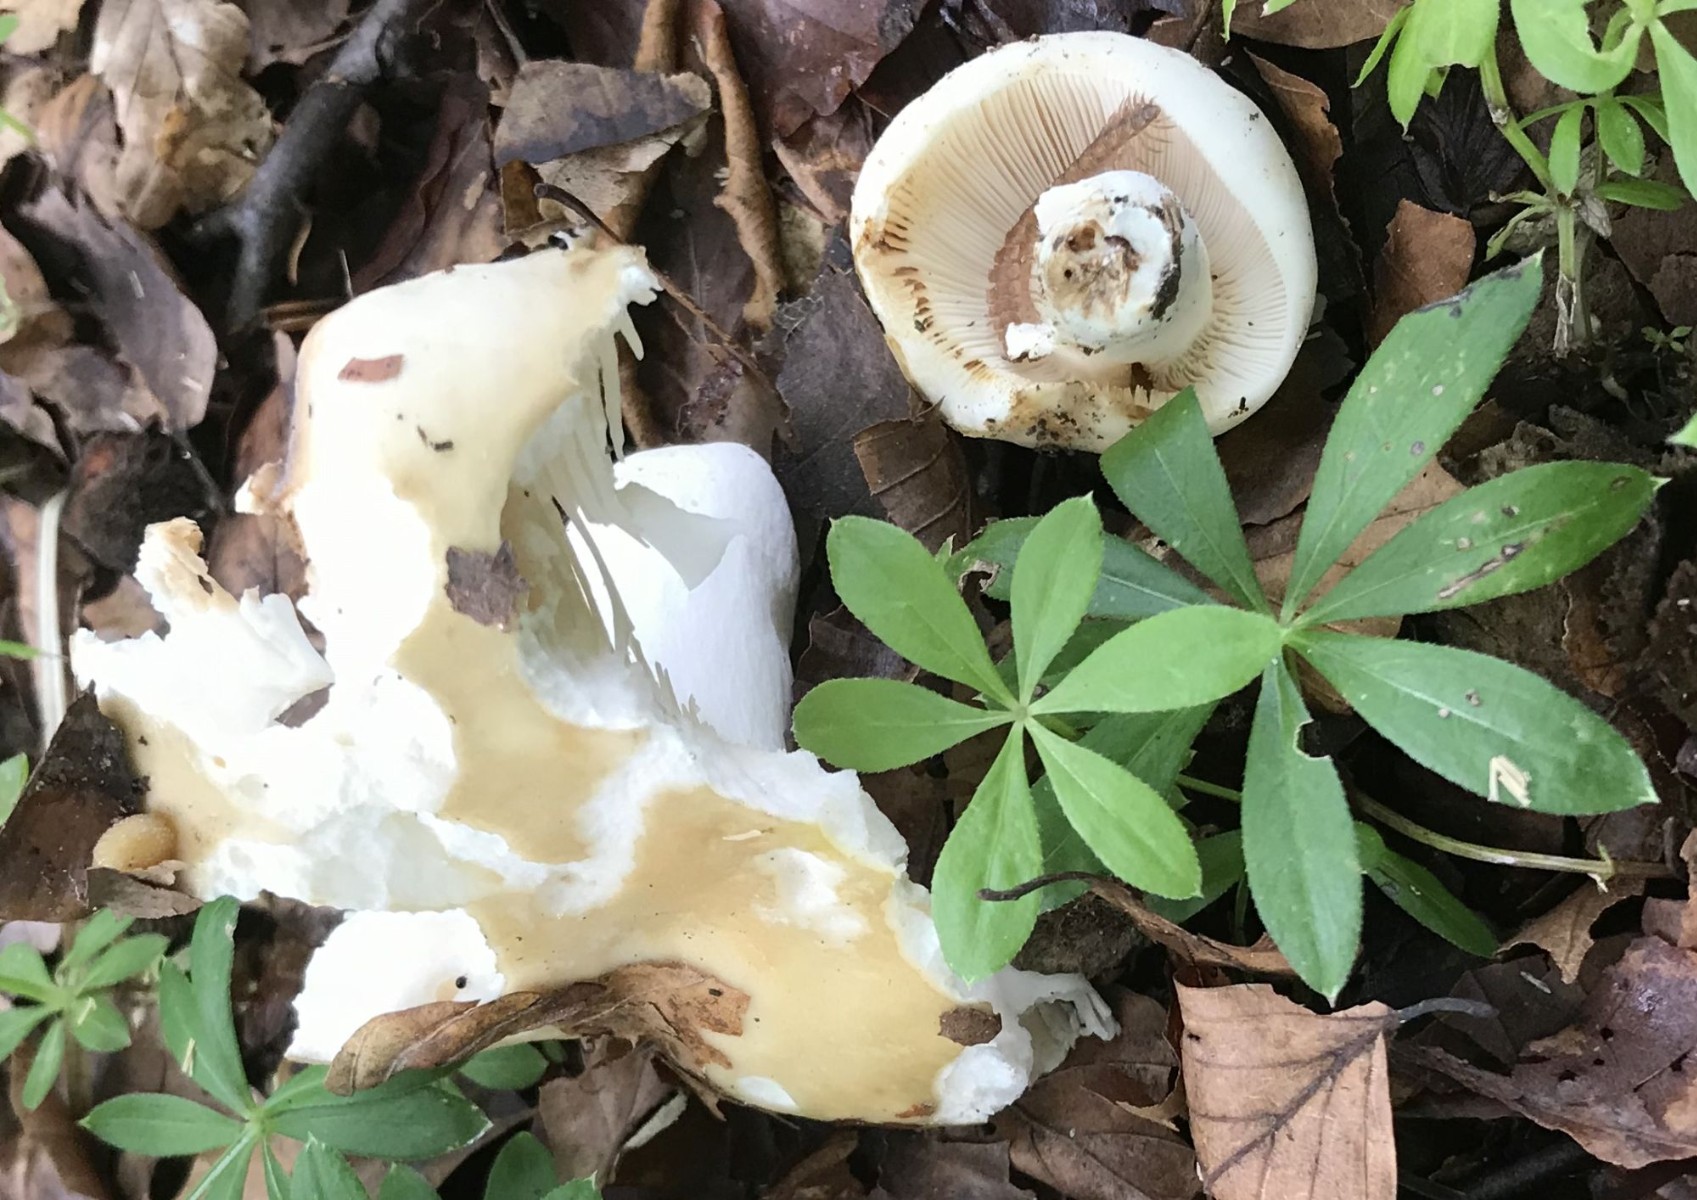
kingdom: Fungi
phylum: Basidiomycota
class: Agaricomycetes
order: Russulales
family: Russulaceae
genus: Russula
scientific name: Russula
